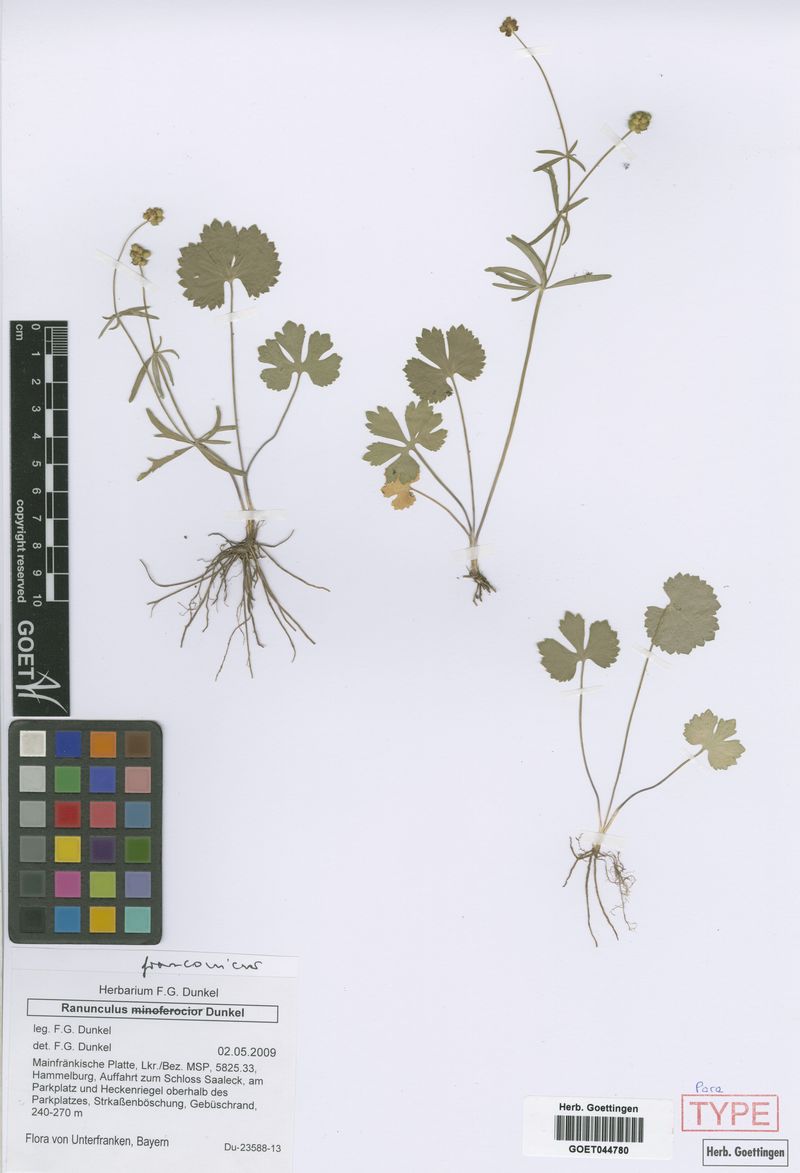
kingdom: Plantae
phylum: Tracheophyta
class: Magnoliopsida
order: Ranunculales
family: Ranunculaceae
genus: Ranunculus
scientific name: Ranunculus franconicus
